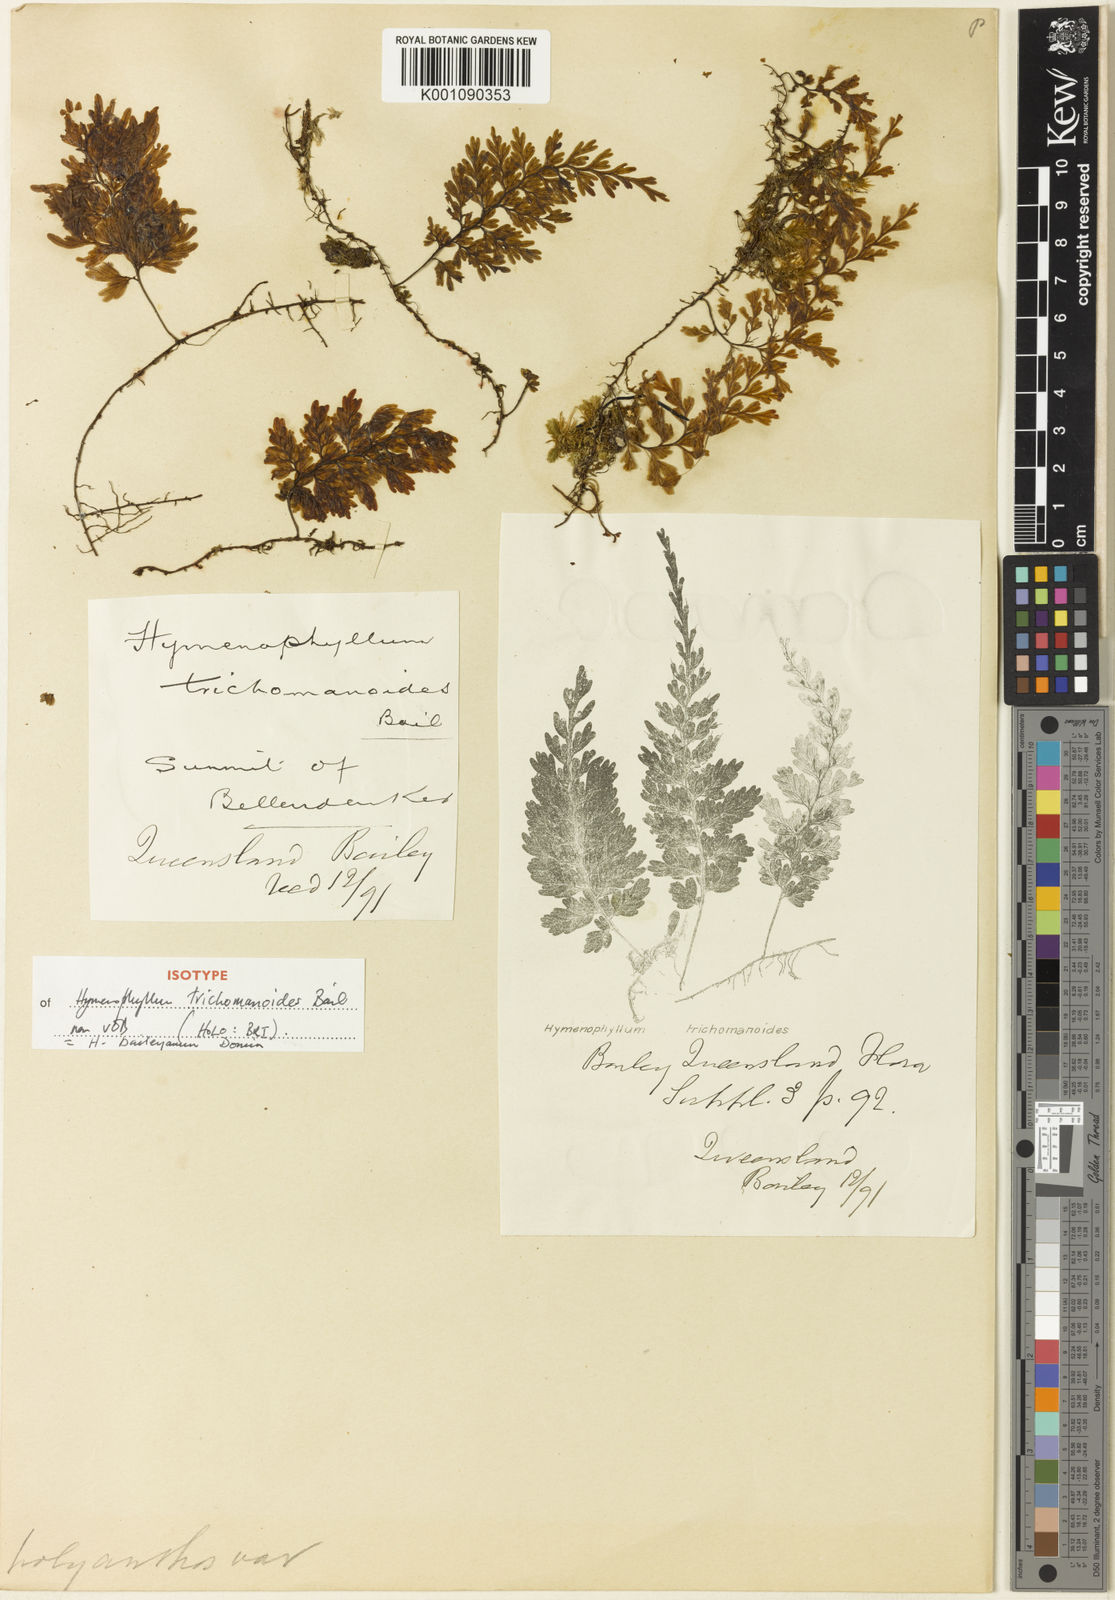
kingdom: Plantae
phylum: Tracheophyta
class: Polypodiopsida
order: Hymenophyllales
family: Hymenophyllaceae
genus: Hymenophyllum
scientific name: Hymenophyllum baileyanum
